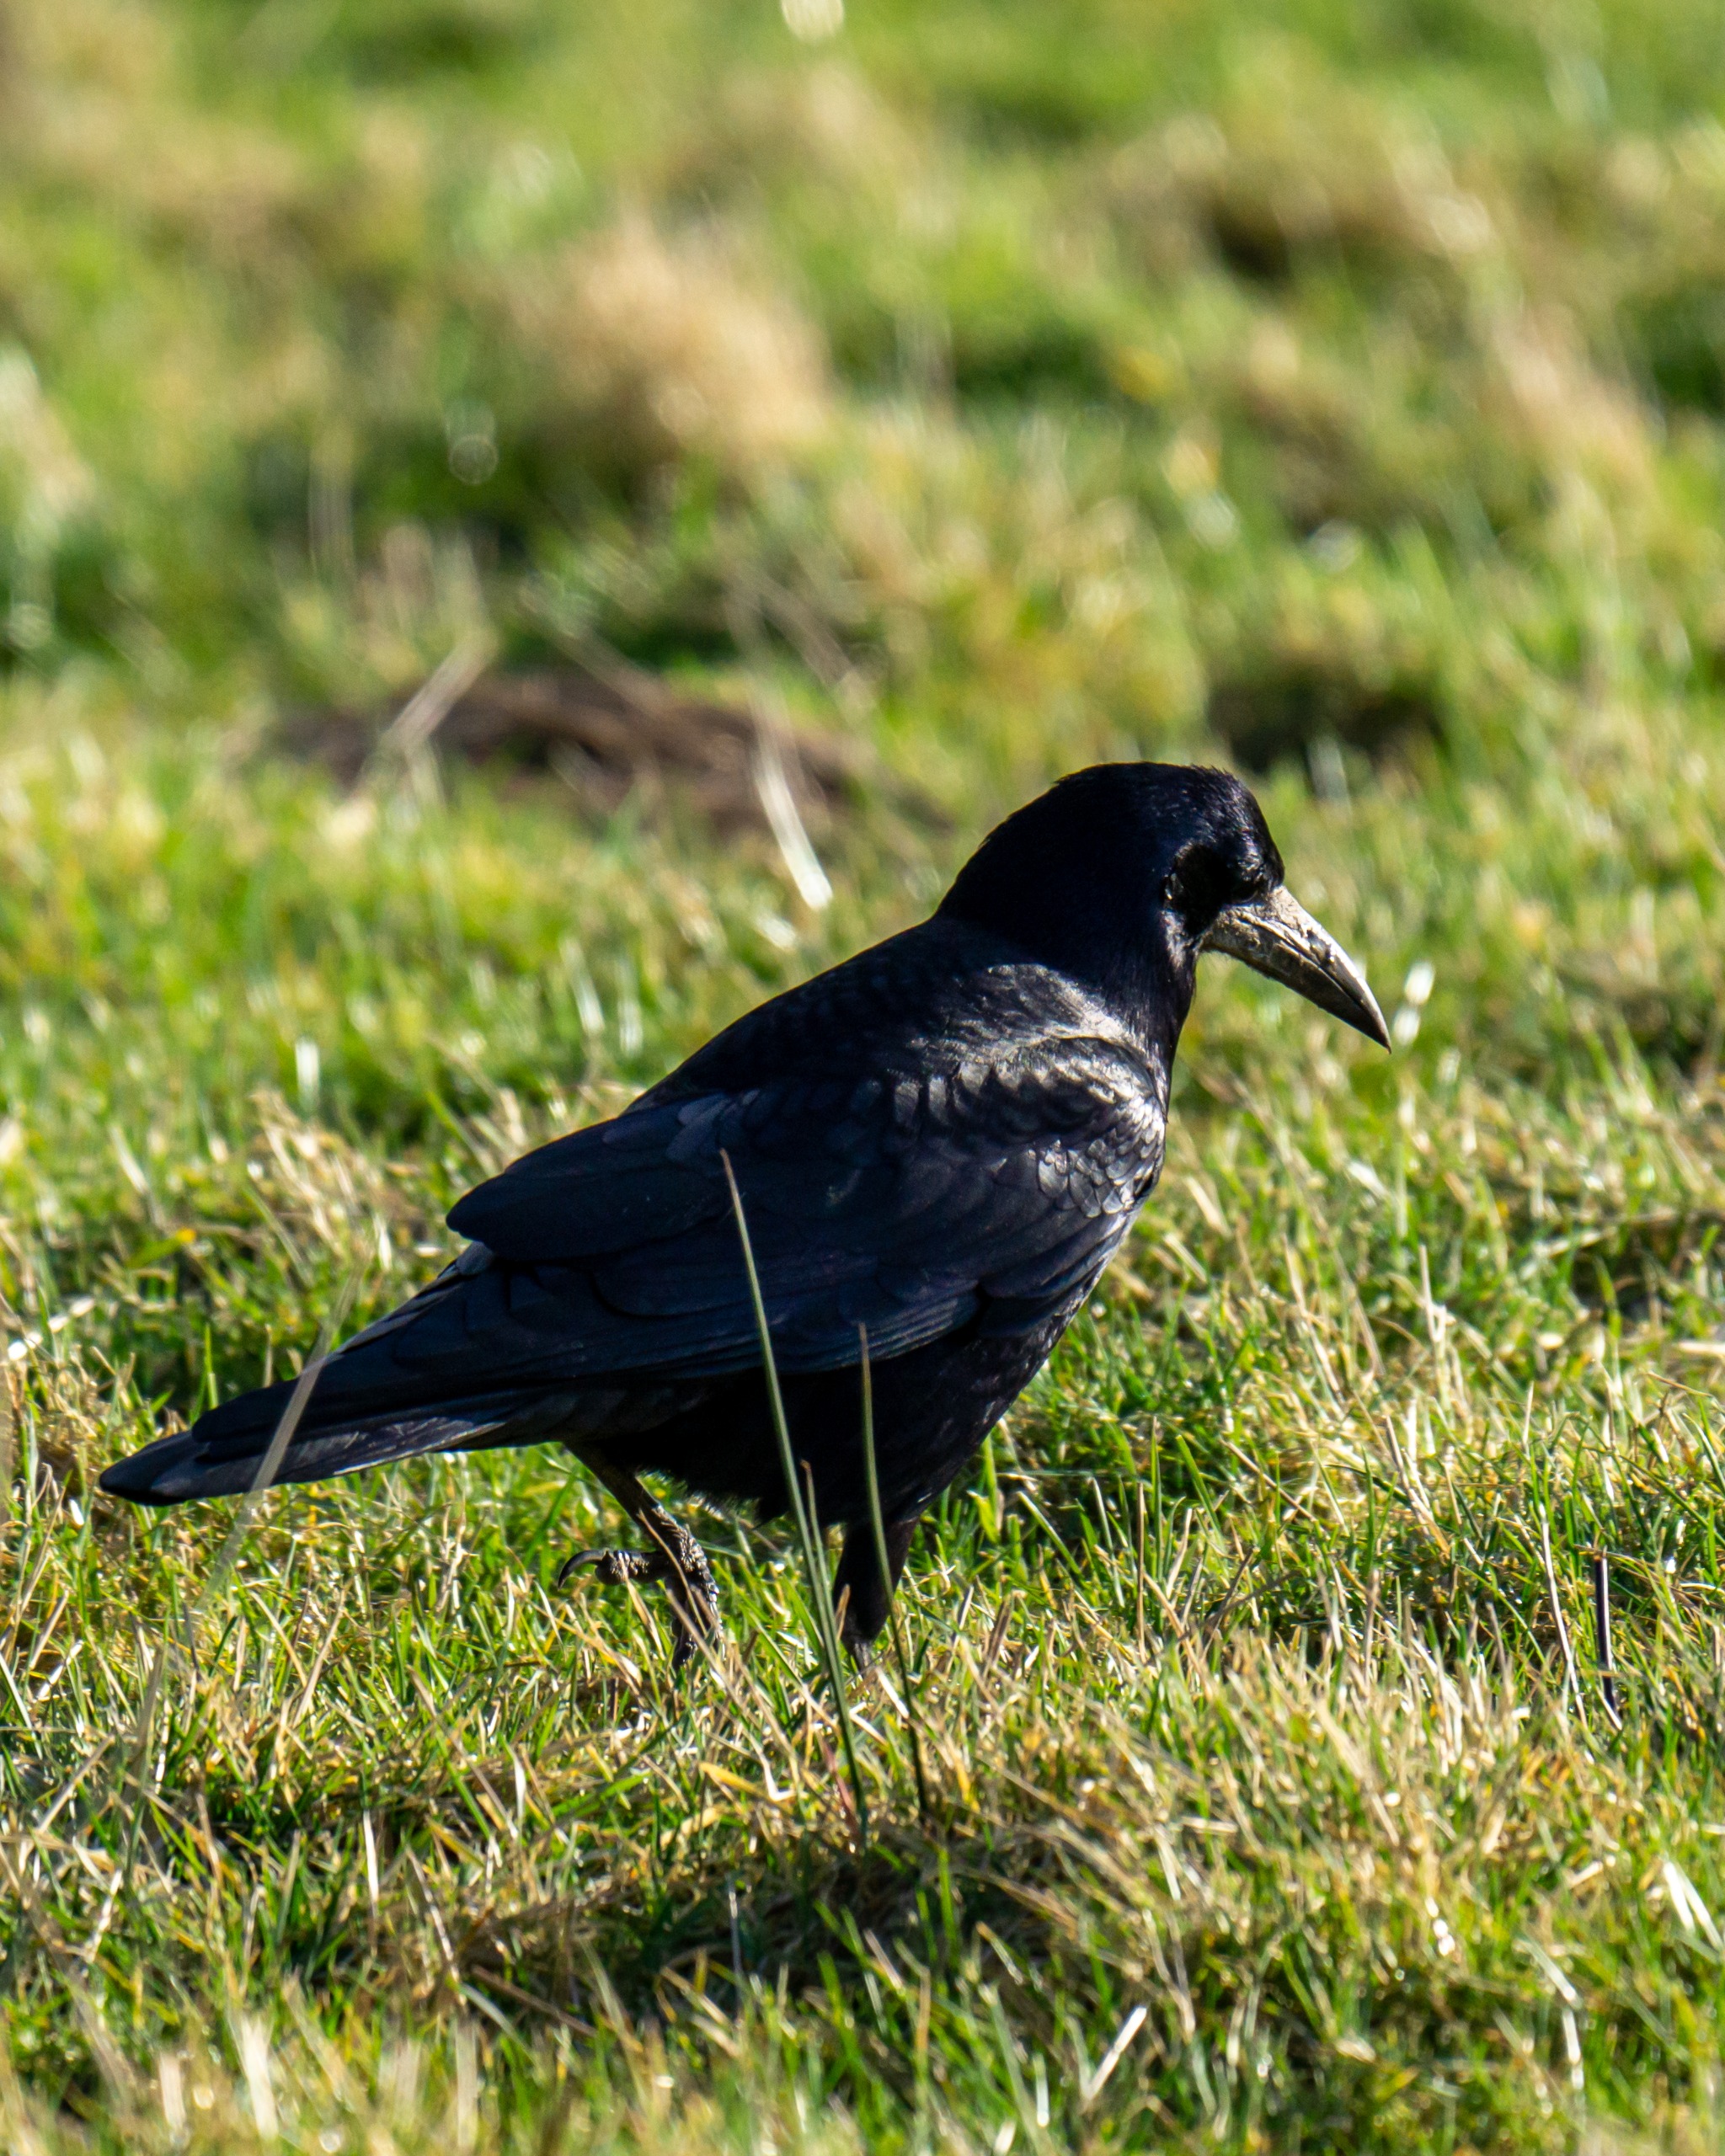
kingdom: Animalia
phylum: Chordata
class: Aves
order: Passeriformes
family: Corvidae
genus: Corvus
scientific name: Corvus frugilegus
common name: Råge
